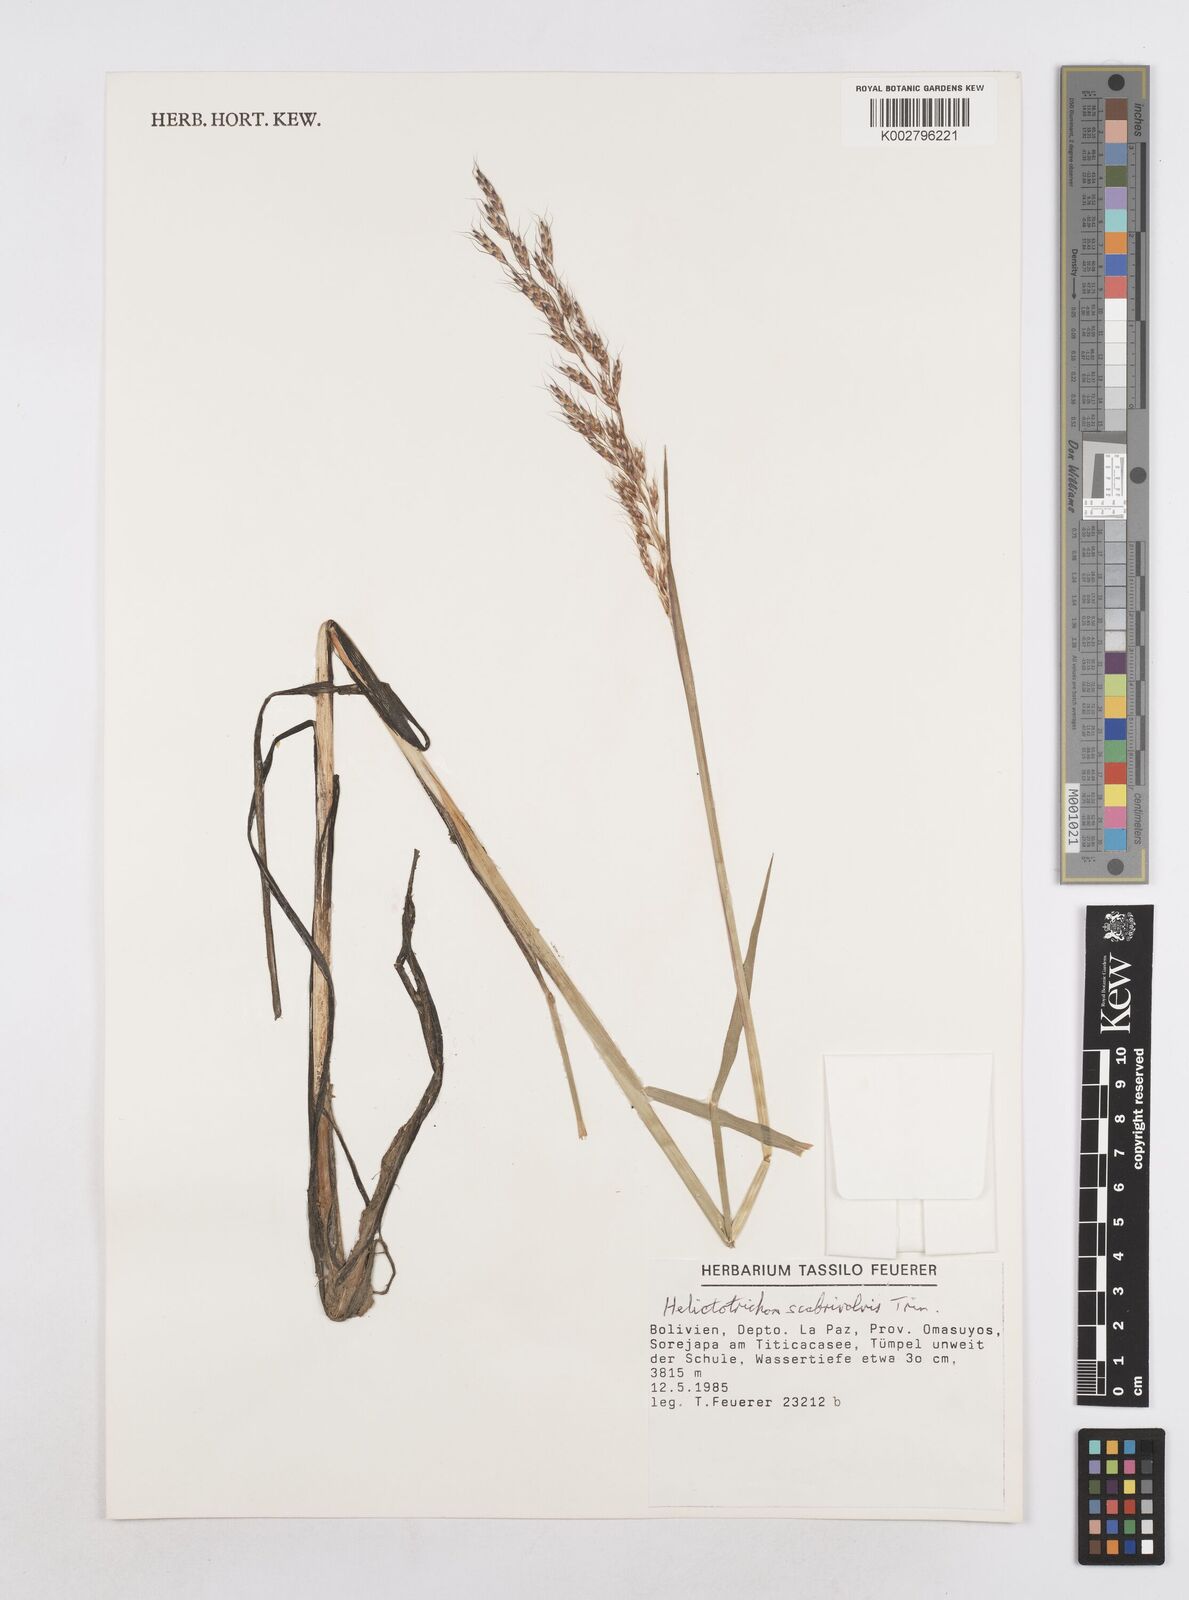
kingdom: Plantae
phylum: Tracheophyta
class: Liliopsida
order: Poales
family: Poaceae
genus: Amphibromus
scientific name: Amphibromus scabrivalvis
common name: Swamp wallaby grass
